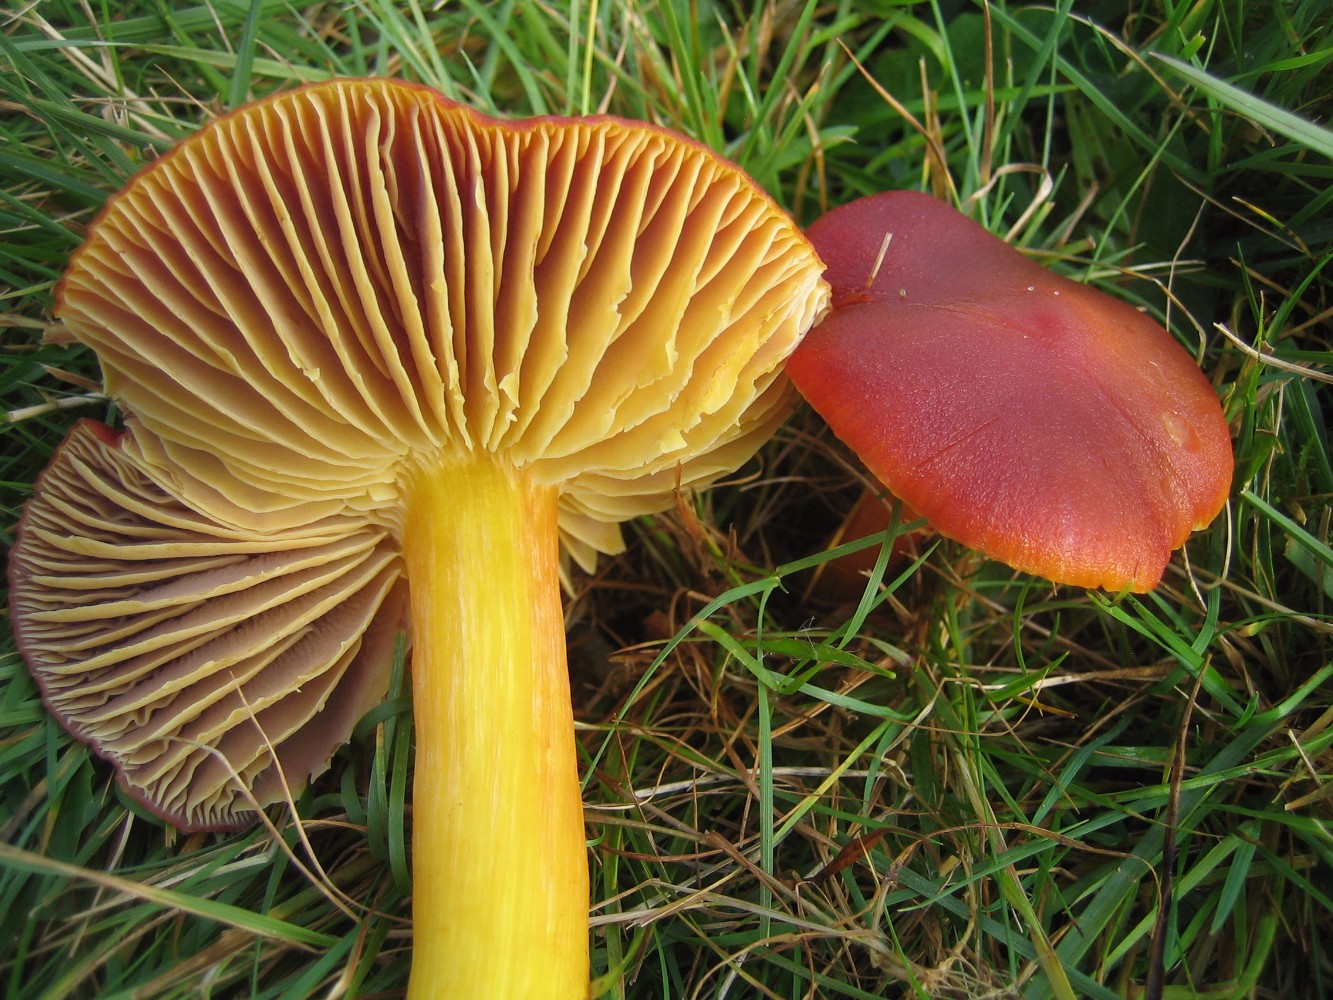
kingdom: Fungi
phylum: Basidiomycota
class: Agaricomycetes
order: Agaricales
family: Hygrophoraceae
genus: Hygrocybe
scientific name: Hygrocybe punicea
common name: skarlagen-vokshat
